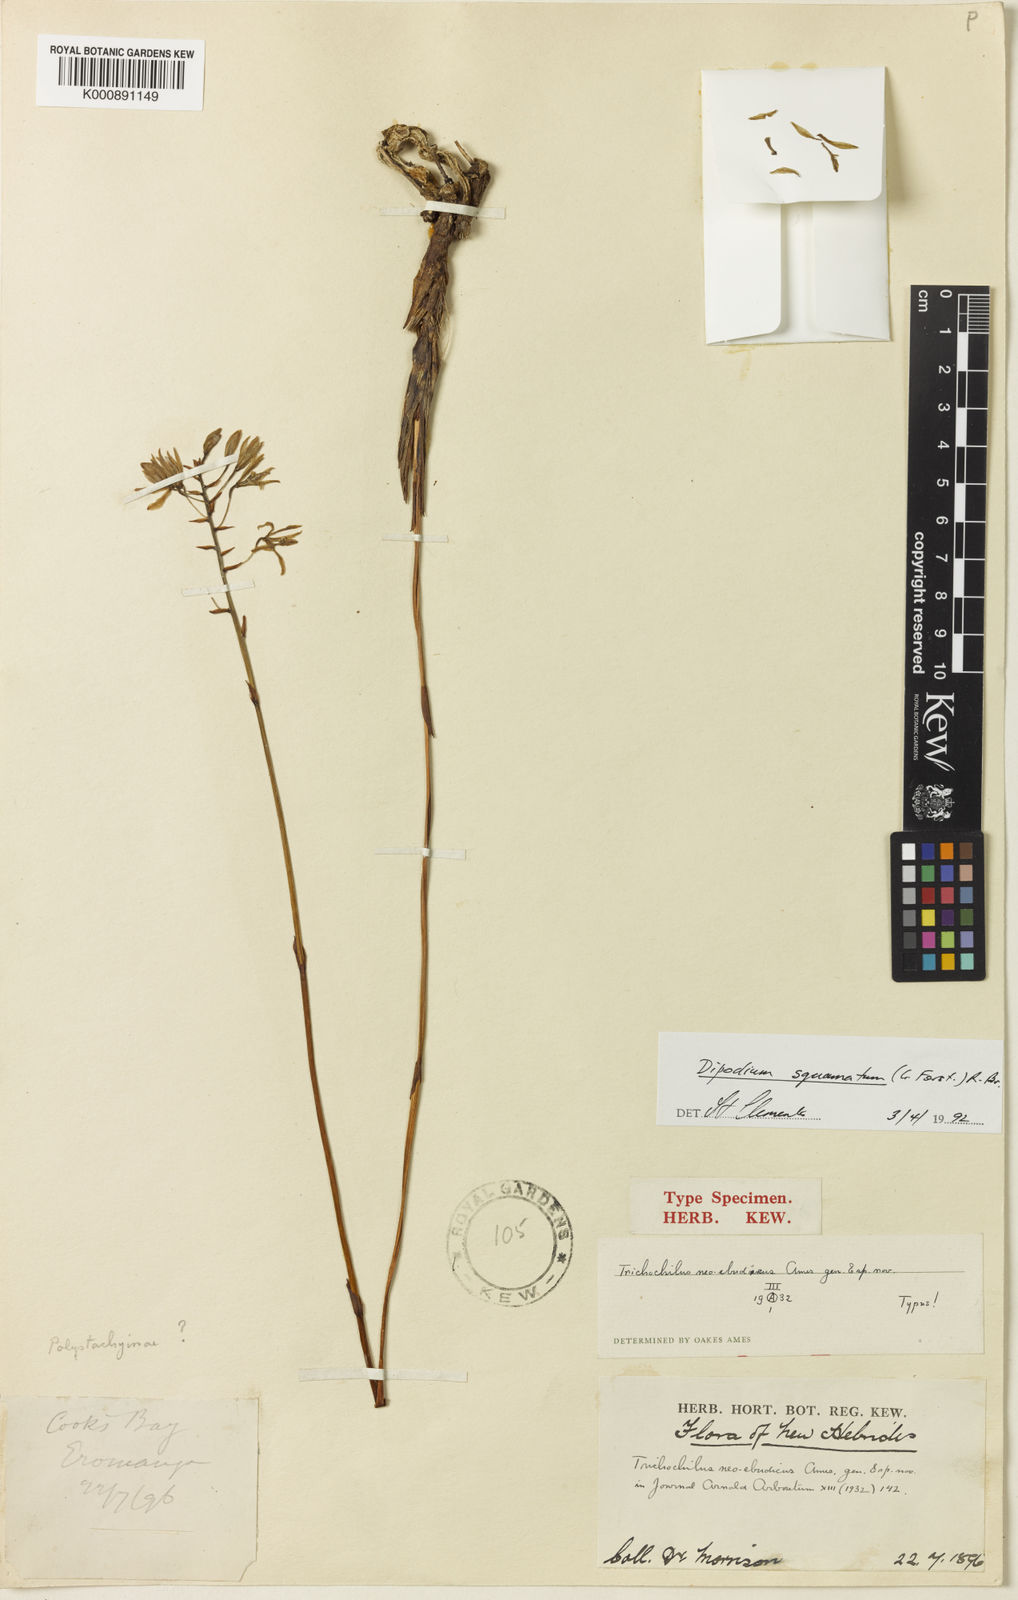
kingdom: Plantae
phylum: Tracheophyta
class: Liliopsida
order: Asparagales
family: Orchidaceae
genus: Dipodium
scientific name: Dipodium squamatum
